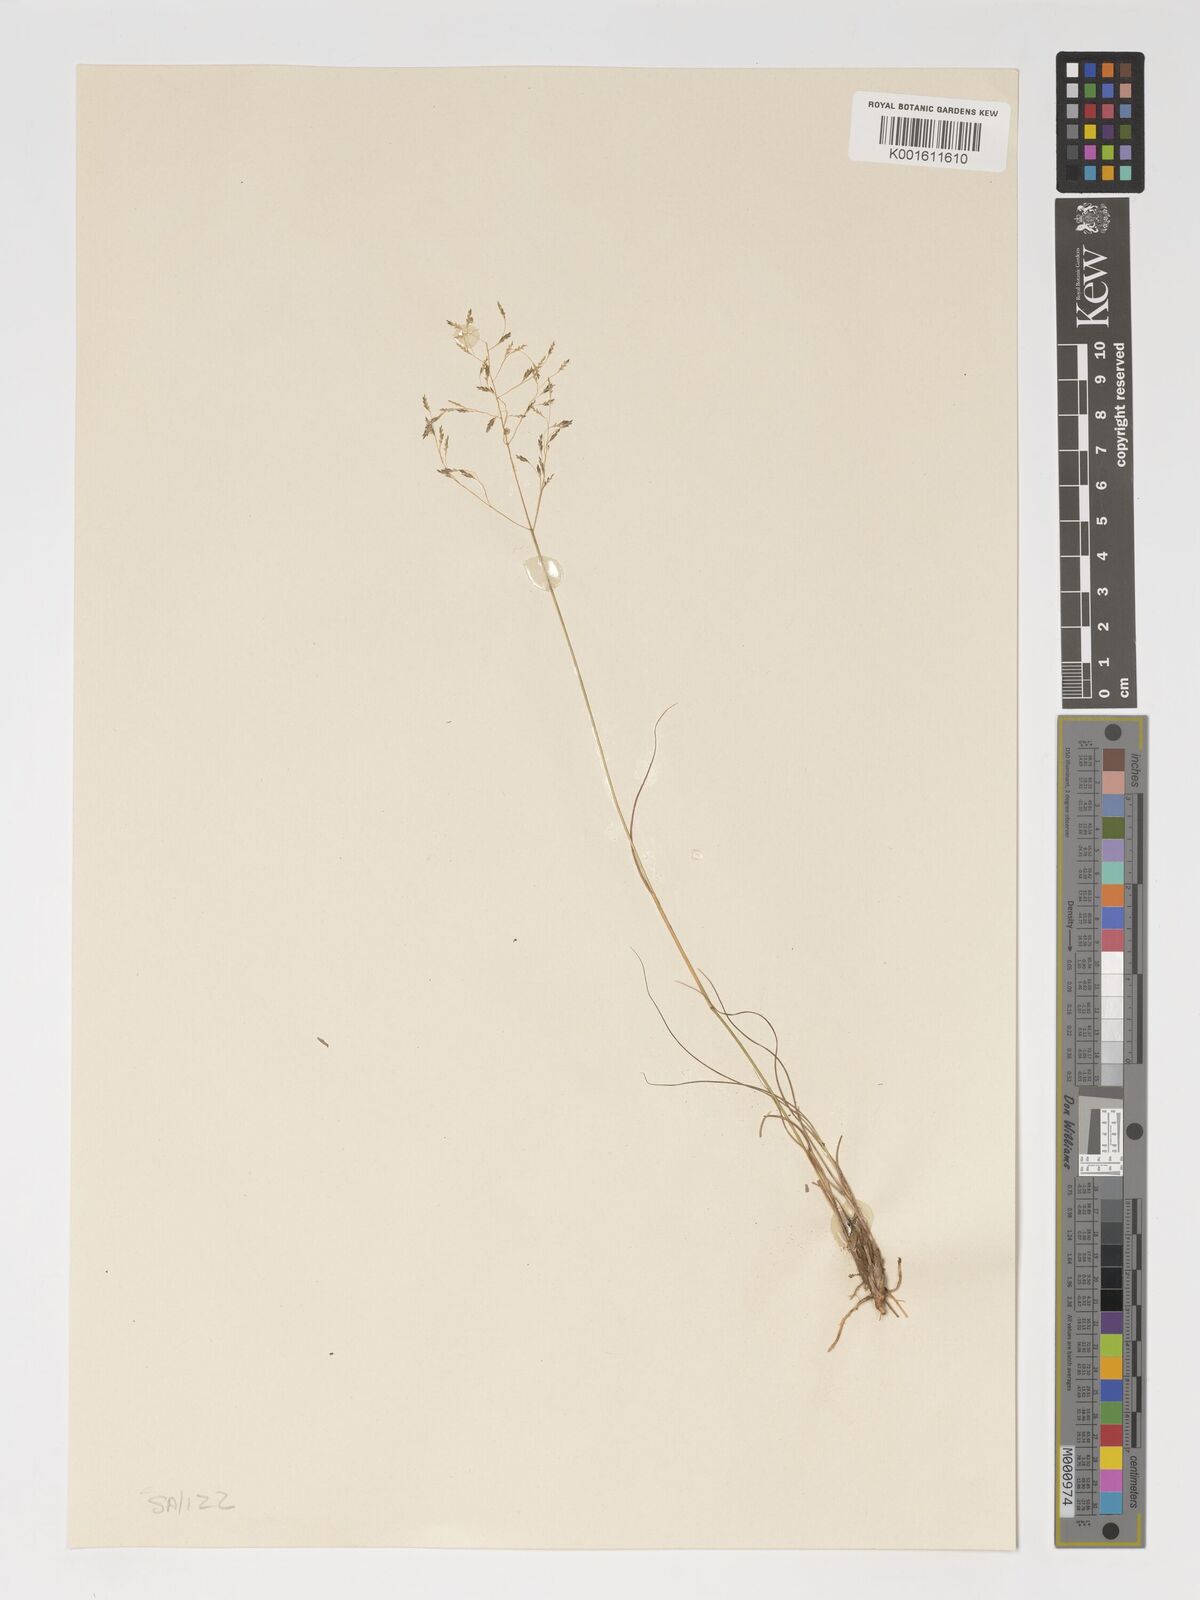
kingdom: Plantae
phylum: Tracheophyta
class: Liliopsida
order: Poales
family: Poaceae
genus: Eragrostis
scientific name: Eragrostis curvula
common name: African love-grass
